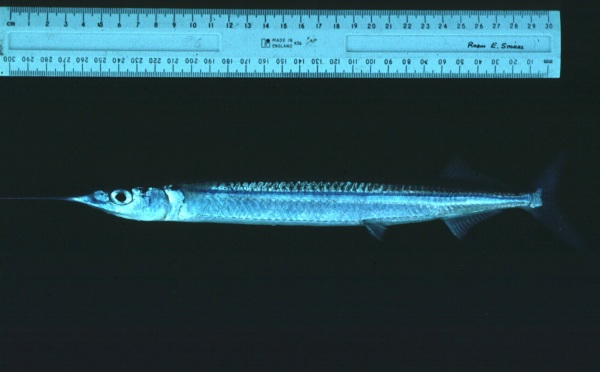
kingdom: Animalia
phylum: Chordata
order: Beloniformes
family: Hemiramphidae
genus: Hyporhamphus
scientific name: Hyporhamphus improvisus
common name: Shortfin halfbeak
